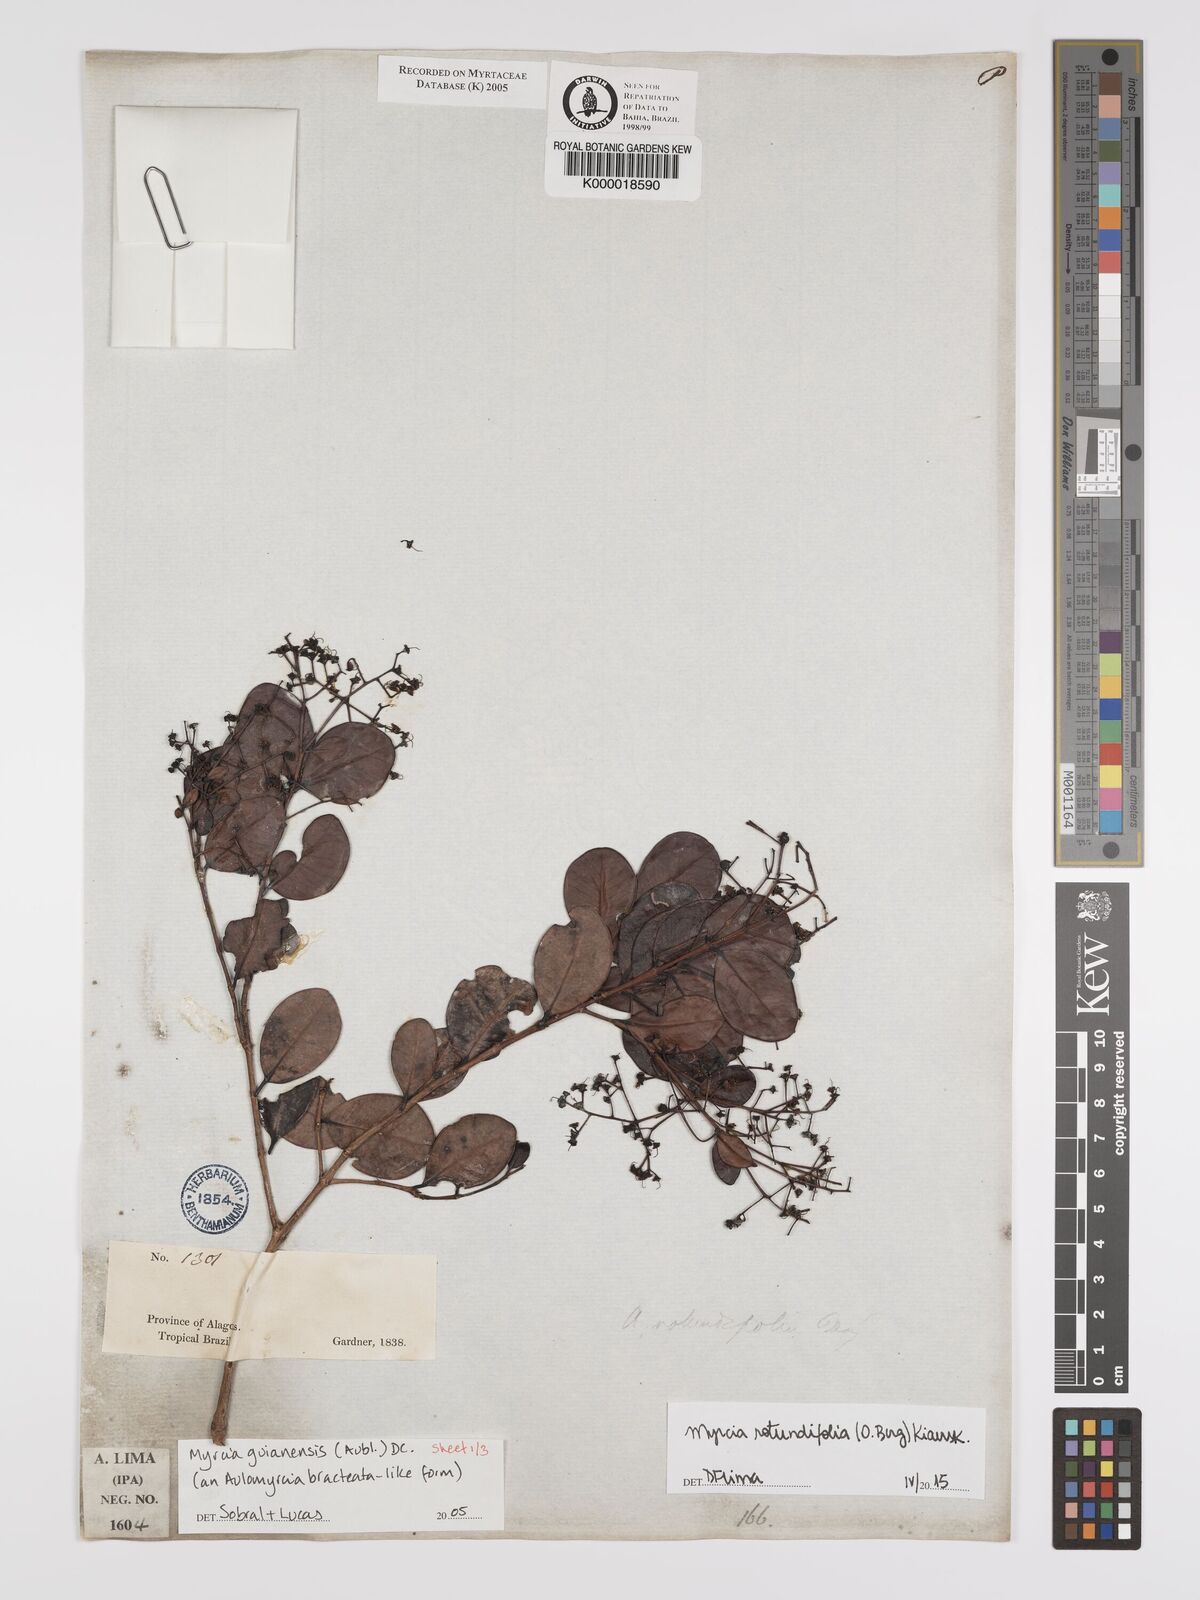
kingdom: Plantae
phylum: Tracheophyta
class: Magnoliopsida
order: Myrtales
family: Myrtaceae
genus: Myrcia
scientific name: Myrcia rotundifolia
